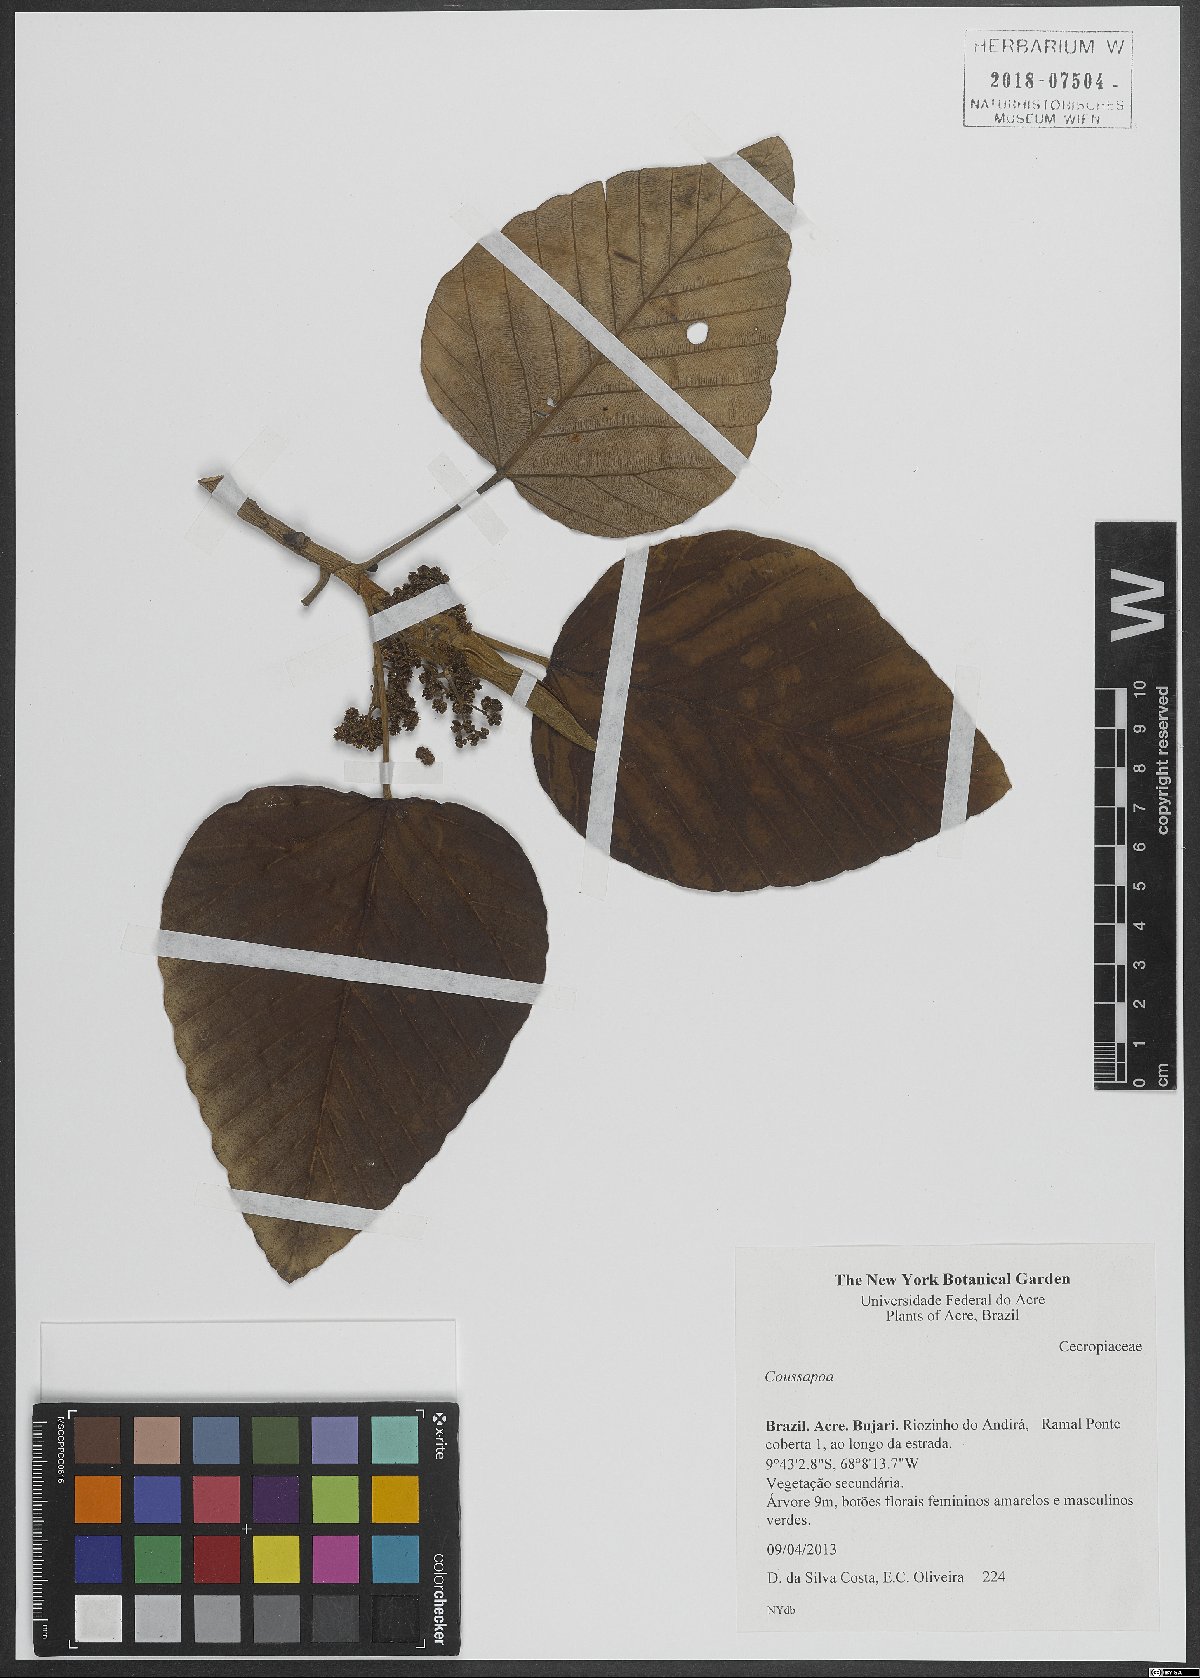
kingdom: Plantae
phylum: Tracheophyta
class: Magnoliopsida
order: Rosales
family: Urticaceae
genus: Coussapoa
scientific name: Coussapoa
